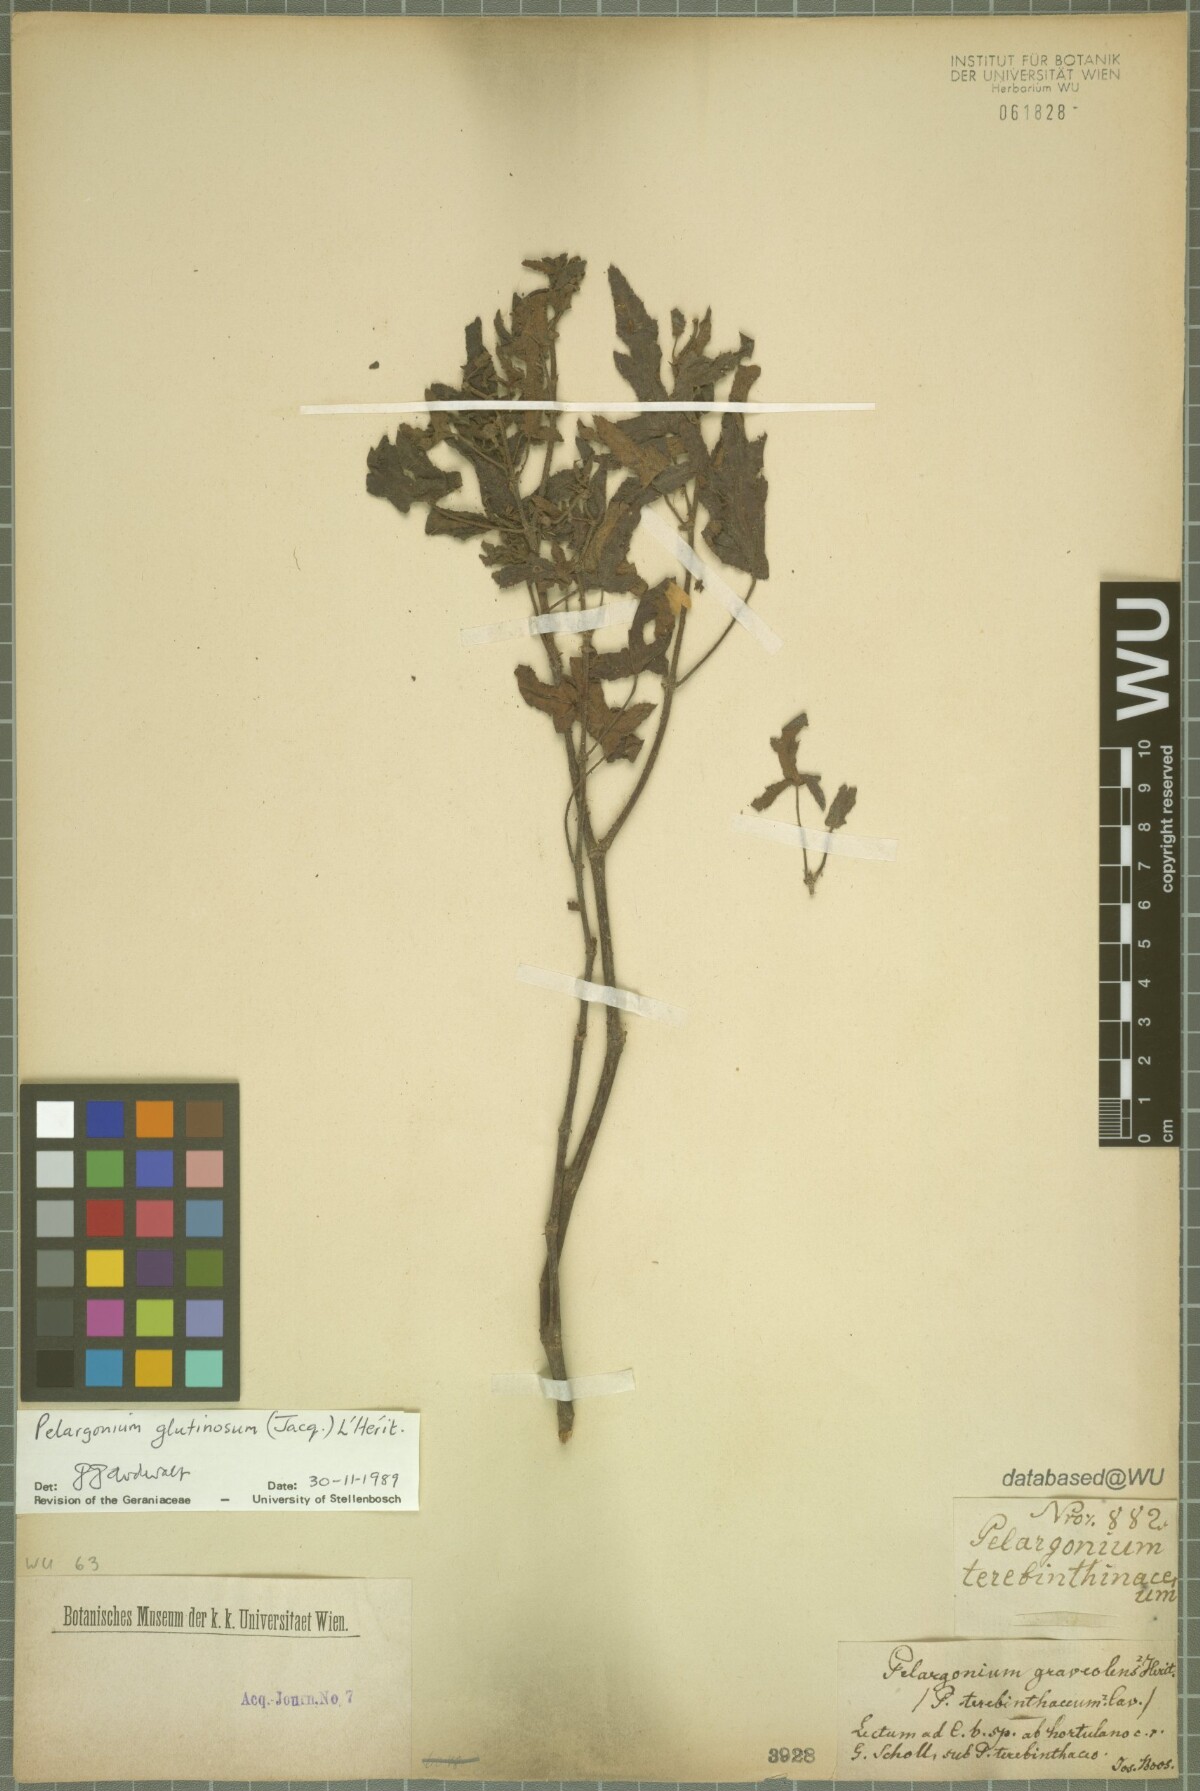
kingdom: Plantae
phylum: Tracheophyta
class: Magnoliopsida
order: Geraniales
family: Geraniaceae
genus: Pelargonium
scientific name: Pelargonium glutinosum
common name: Pheasant-foot geranium
